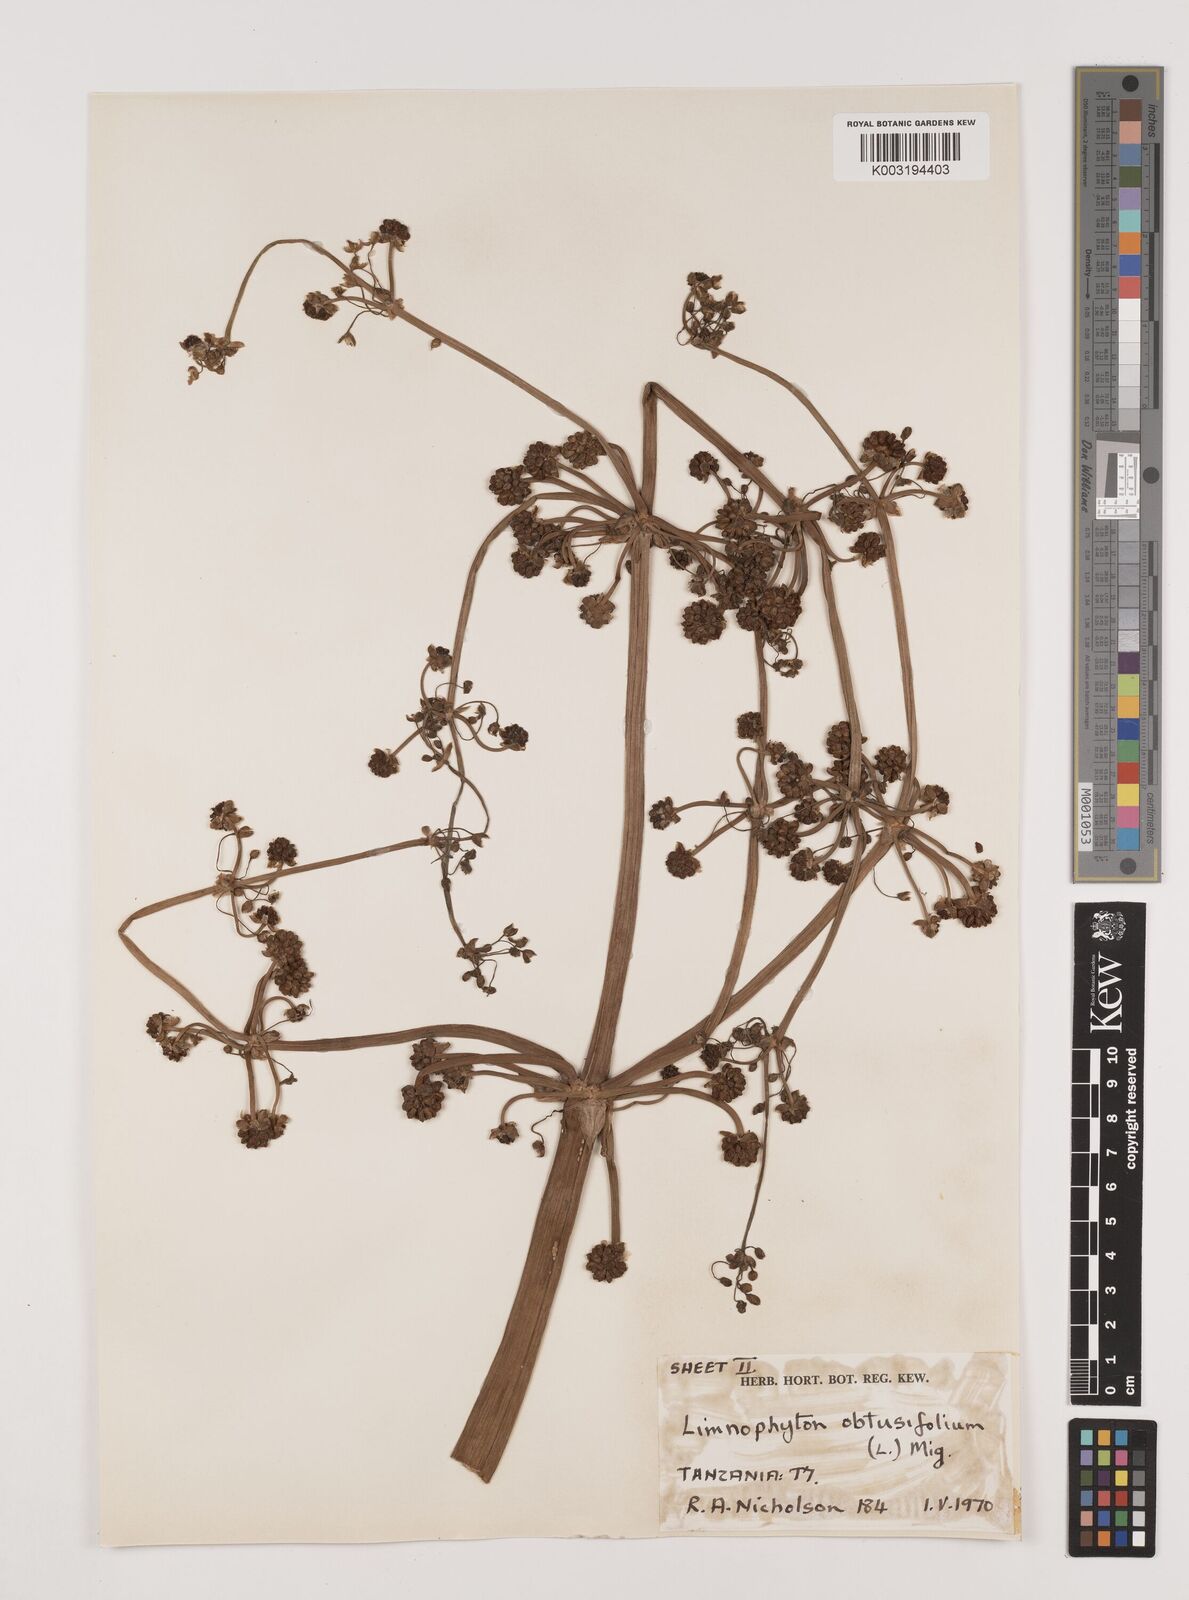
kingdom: Plantae
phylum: Tracheophyta
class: Liliopsida
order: Alismatales
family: Alismataceae
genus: Limnophyton
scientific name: Limnophyton obtusifolium
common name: Arrow head
